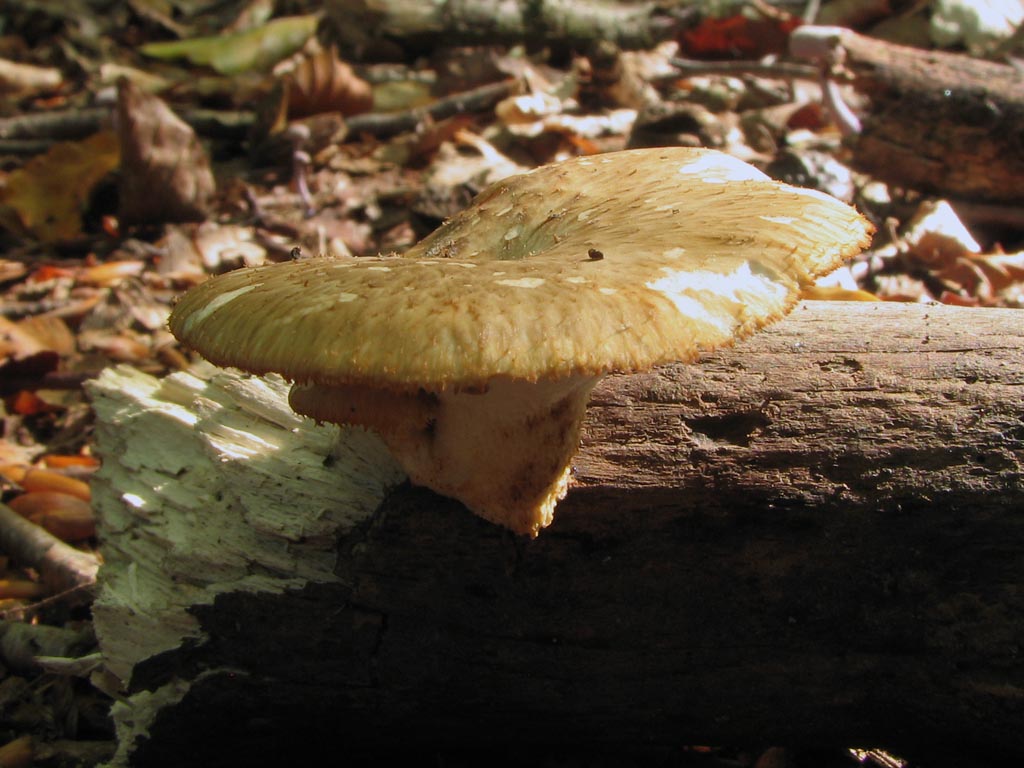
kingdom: Fungi
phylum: Basidiomycota
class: Agaricomycetes
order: Polyporales
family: Polyporaceae
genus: Polyporus
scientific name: Polyporus tuberaster
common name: knoldet stilkporesvamp
